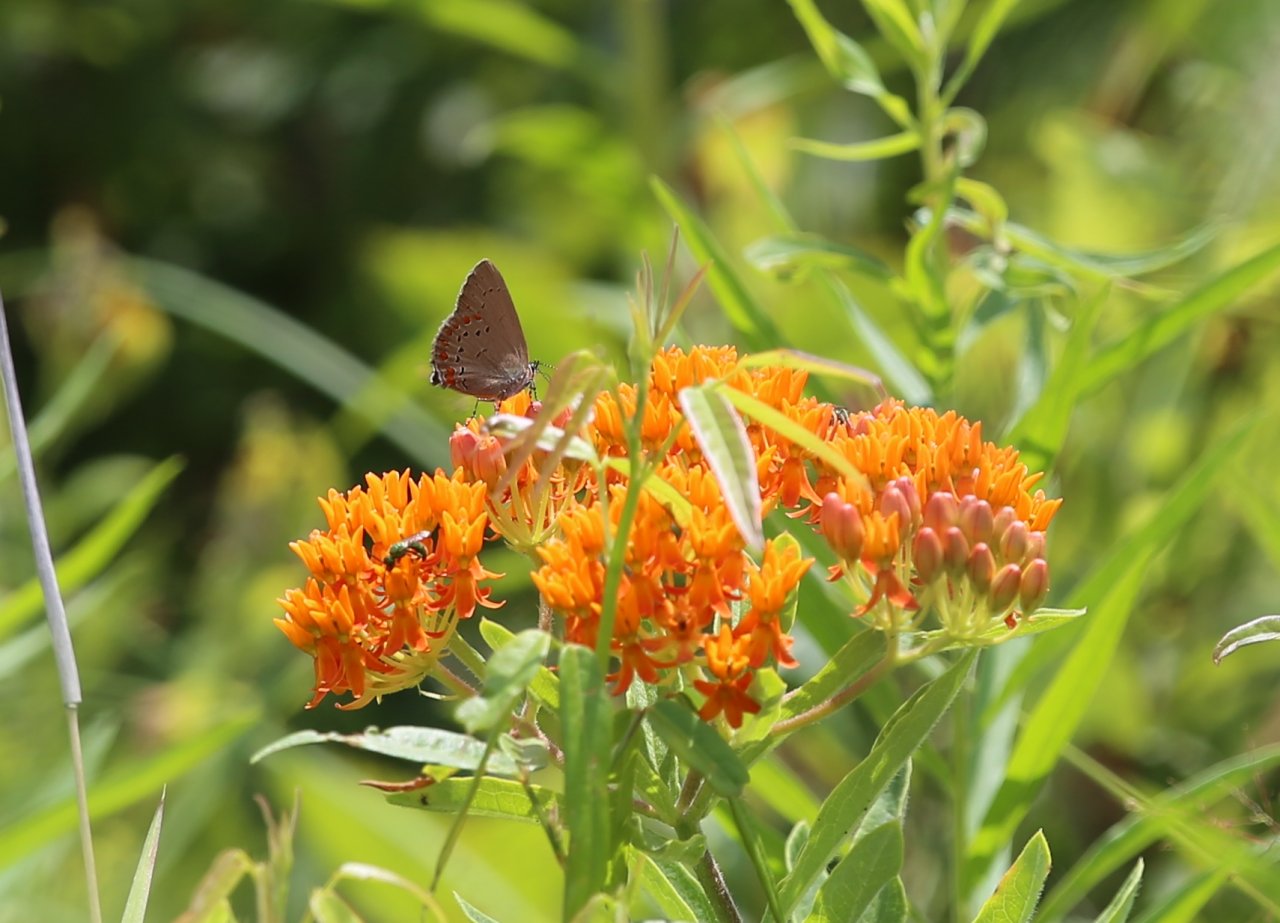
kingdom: Animalia
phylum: Arthropoda
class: Insecta
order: Lepidoptera
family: Lycaenidae
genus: Harkenclenus
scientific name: Harkenclenus titus
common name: Coral Hairstreak
